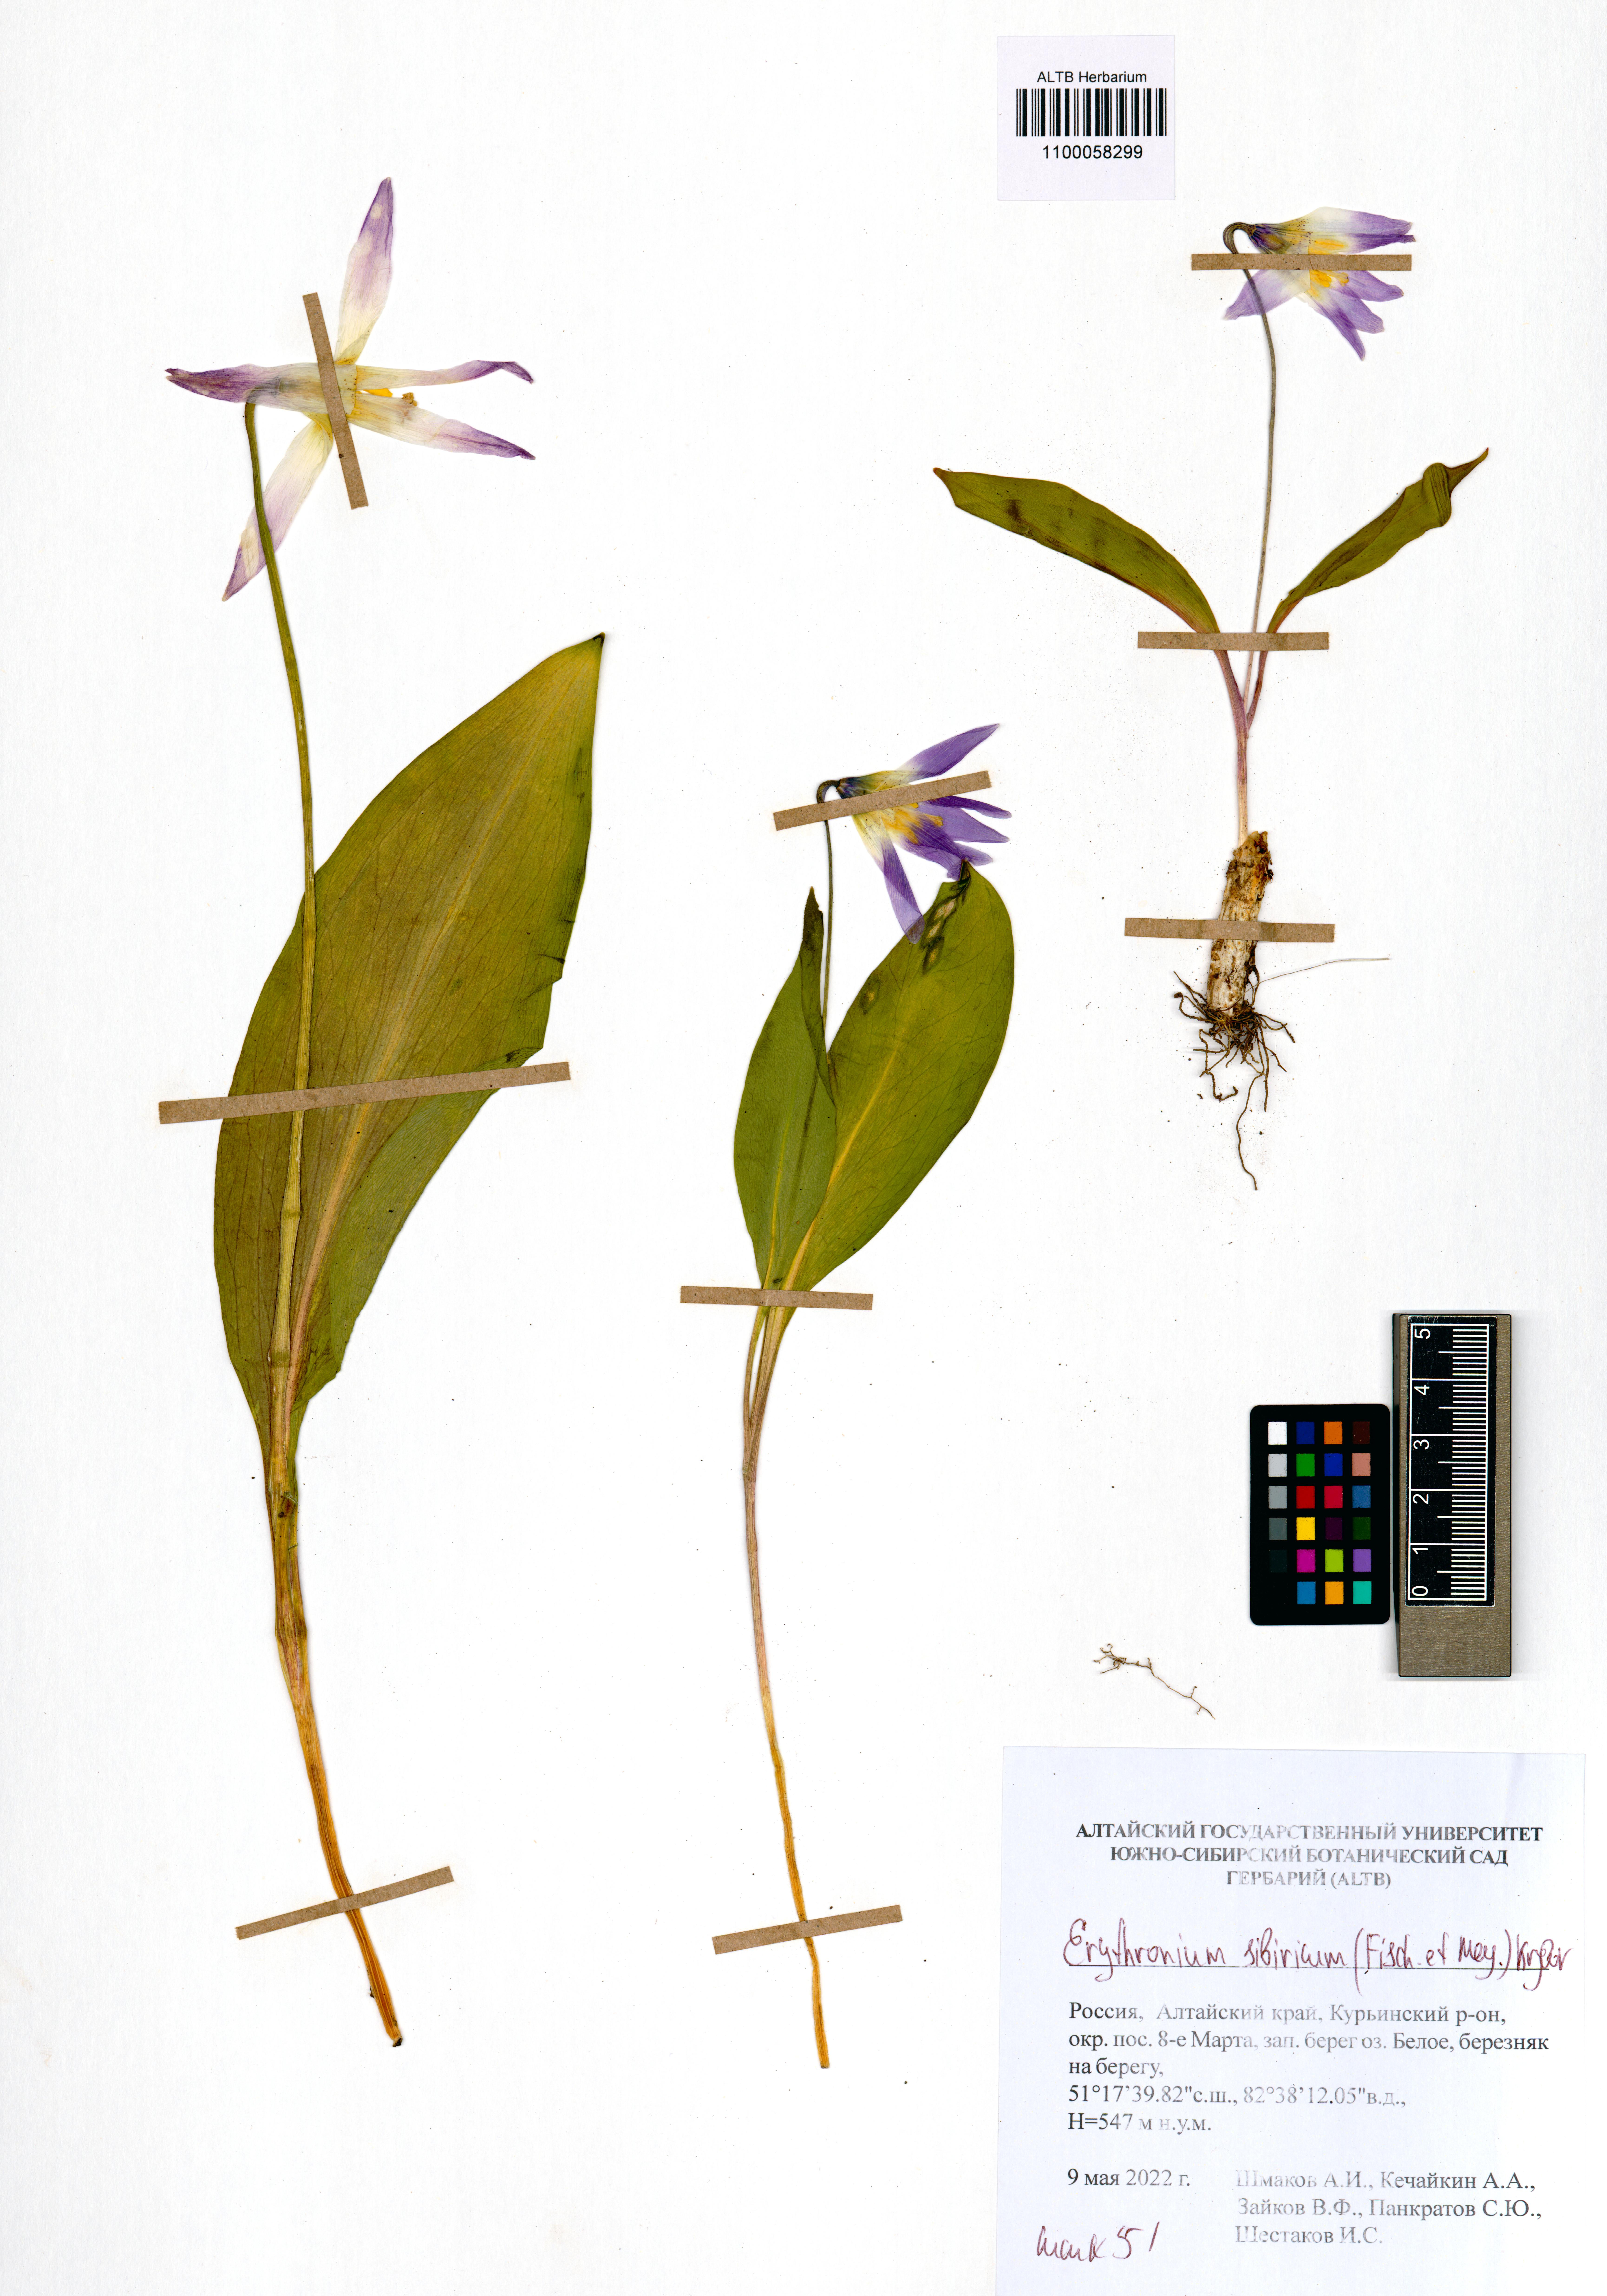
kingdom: Plantae
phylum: Tracheophyta
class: Liliopsida
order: Liliales
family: Liliaceae
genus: Erythronium
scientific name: Erythronium sibiricum
